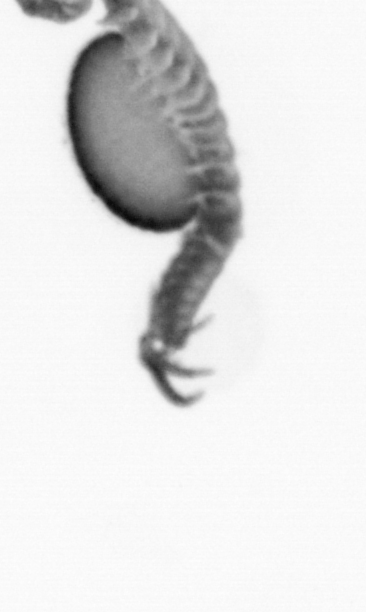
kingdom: Animalia
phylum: Annelida
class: Polychaeta
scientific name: Polychaeta
